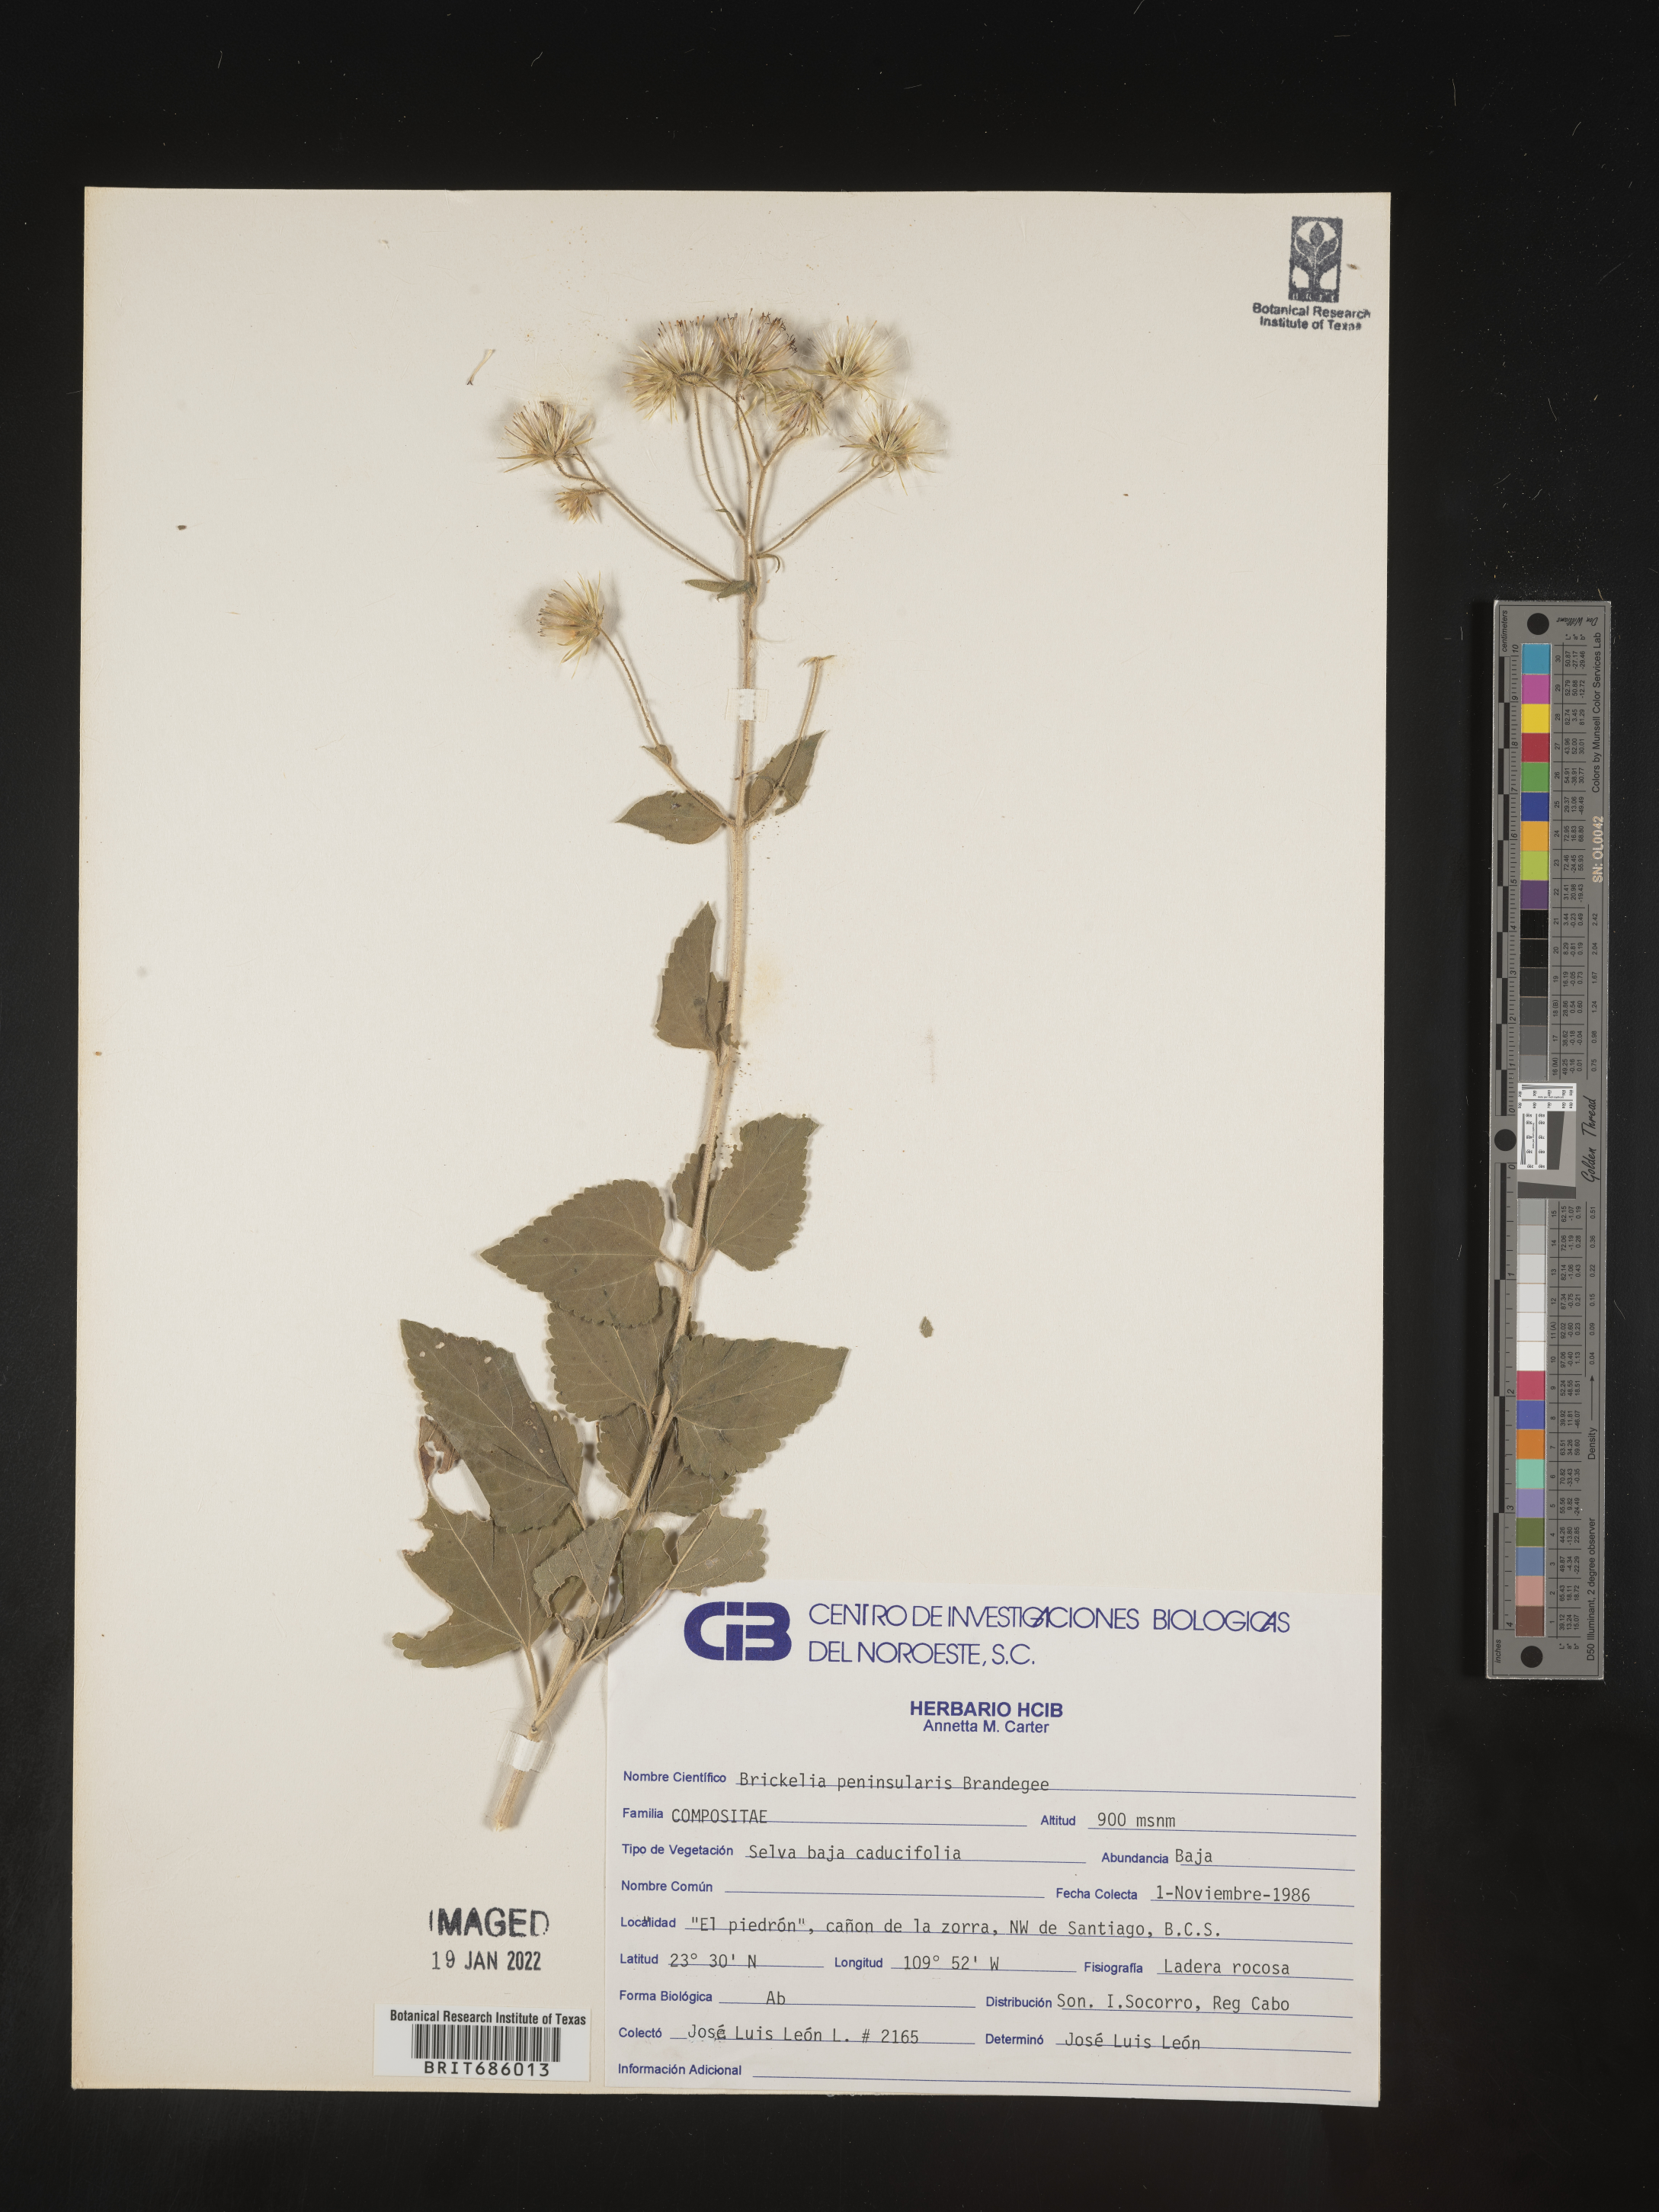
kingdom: Plantae
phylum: Tracheophyta
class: Magnoliopsida
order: Asterales
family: Asteraceae
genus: Brickellia
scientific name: Brickellia
